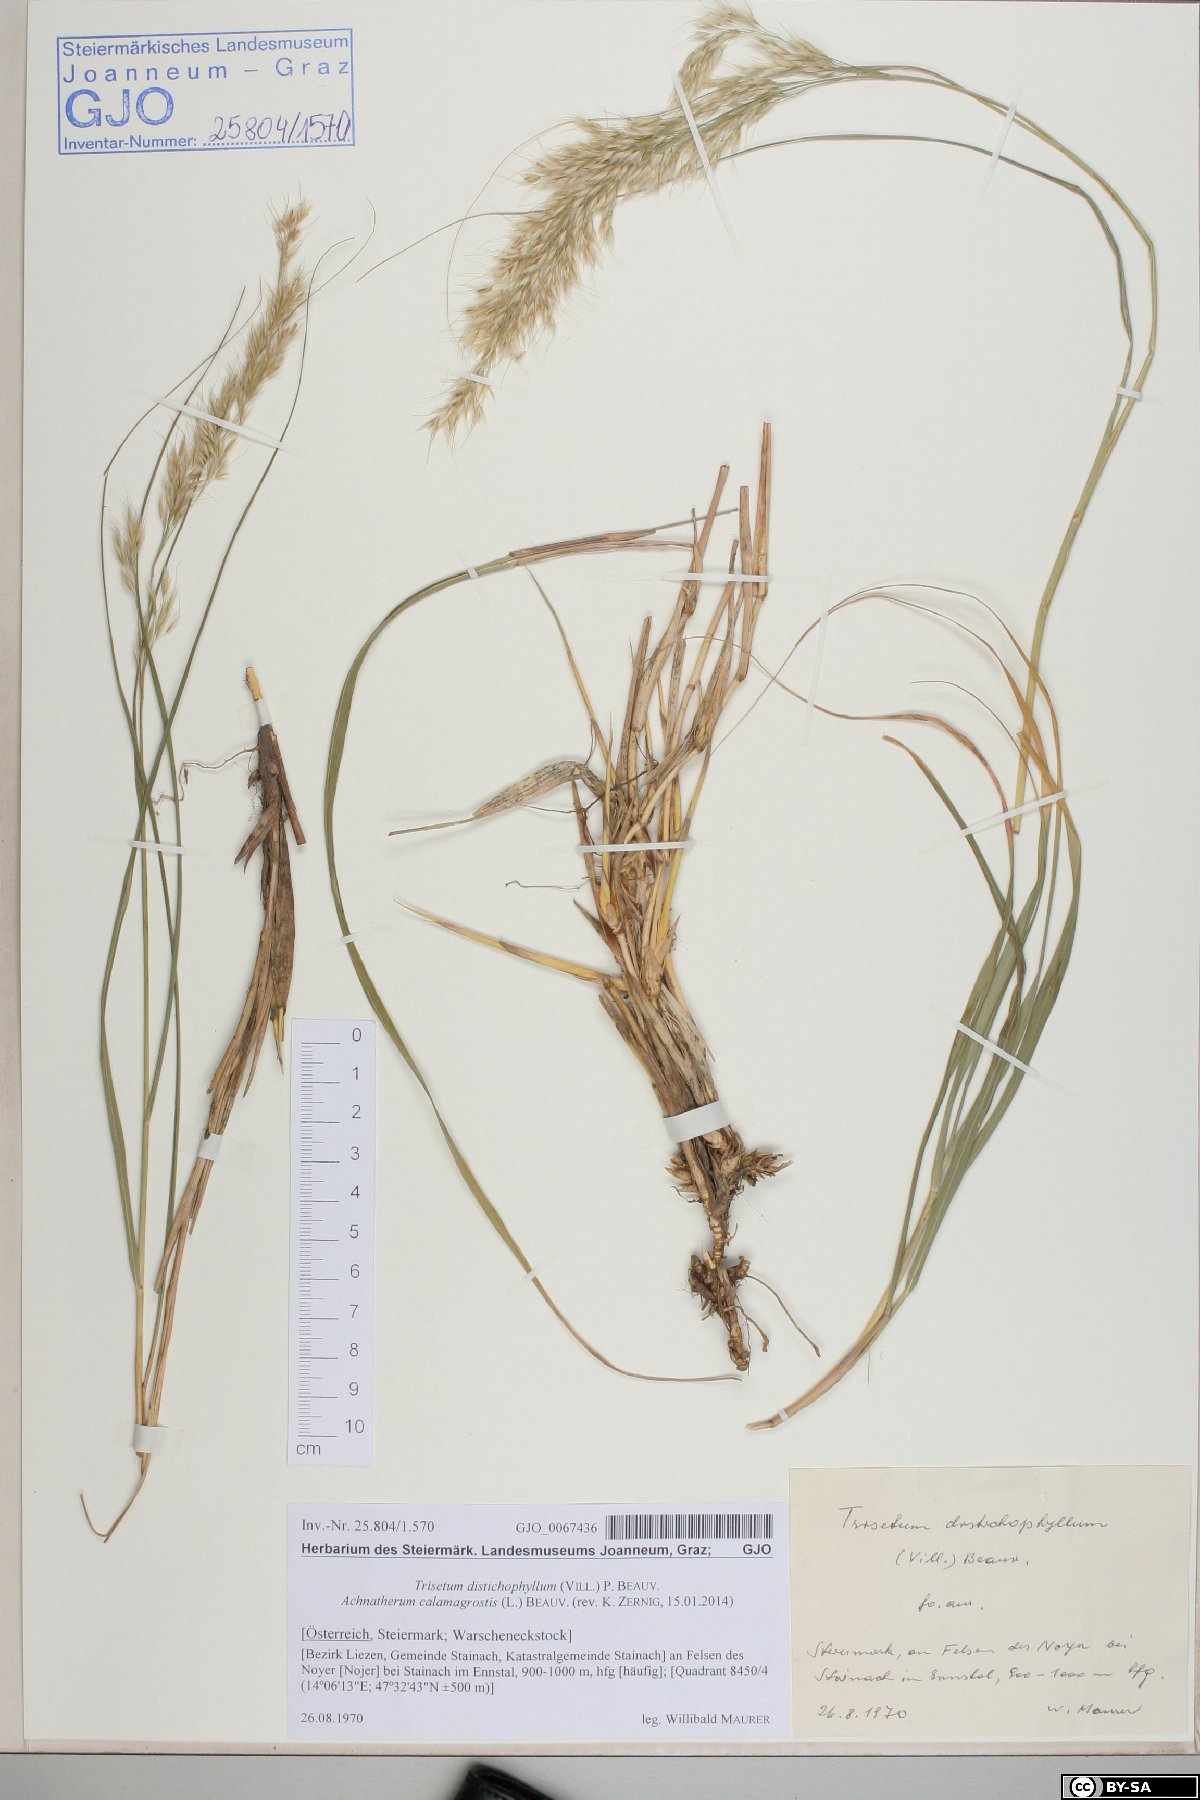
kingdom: Plantae
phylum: Tracheophyta
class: Liliopsida
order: Poales
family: Poaceae
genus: Achnatherum
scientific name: Achnatherum calamagrostis
